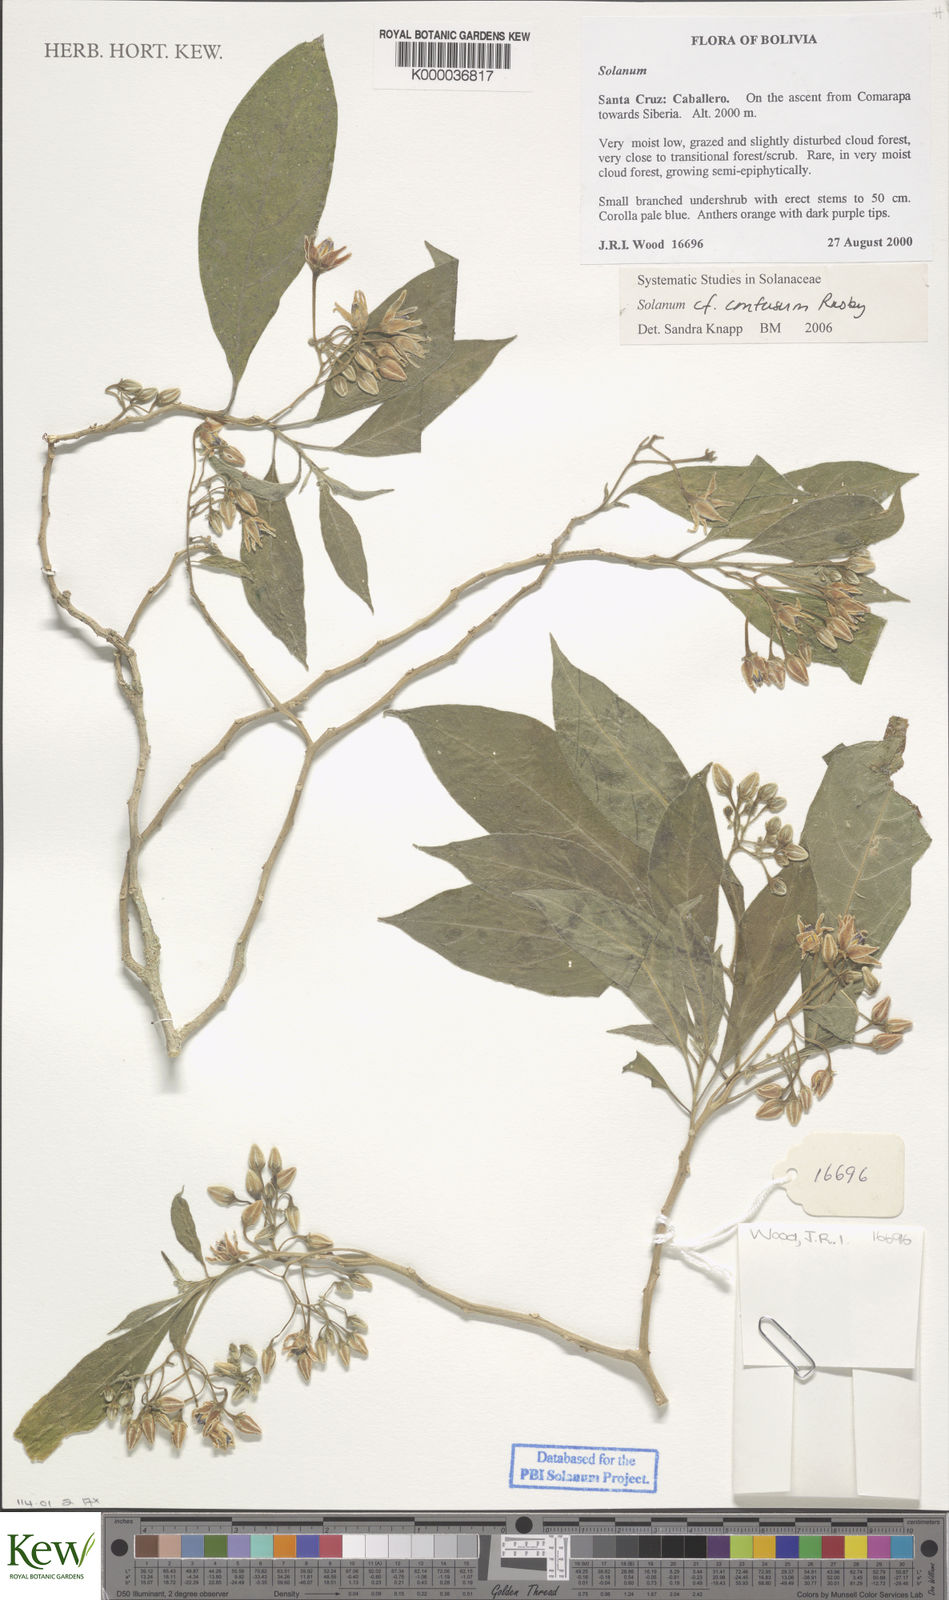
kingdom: Plantae
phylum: Tracheophyta
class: Magnoliopsida
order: Solanales
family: Solanaceae
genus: Solanum
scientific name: Solanum
